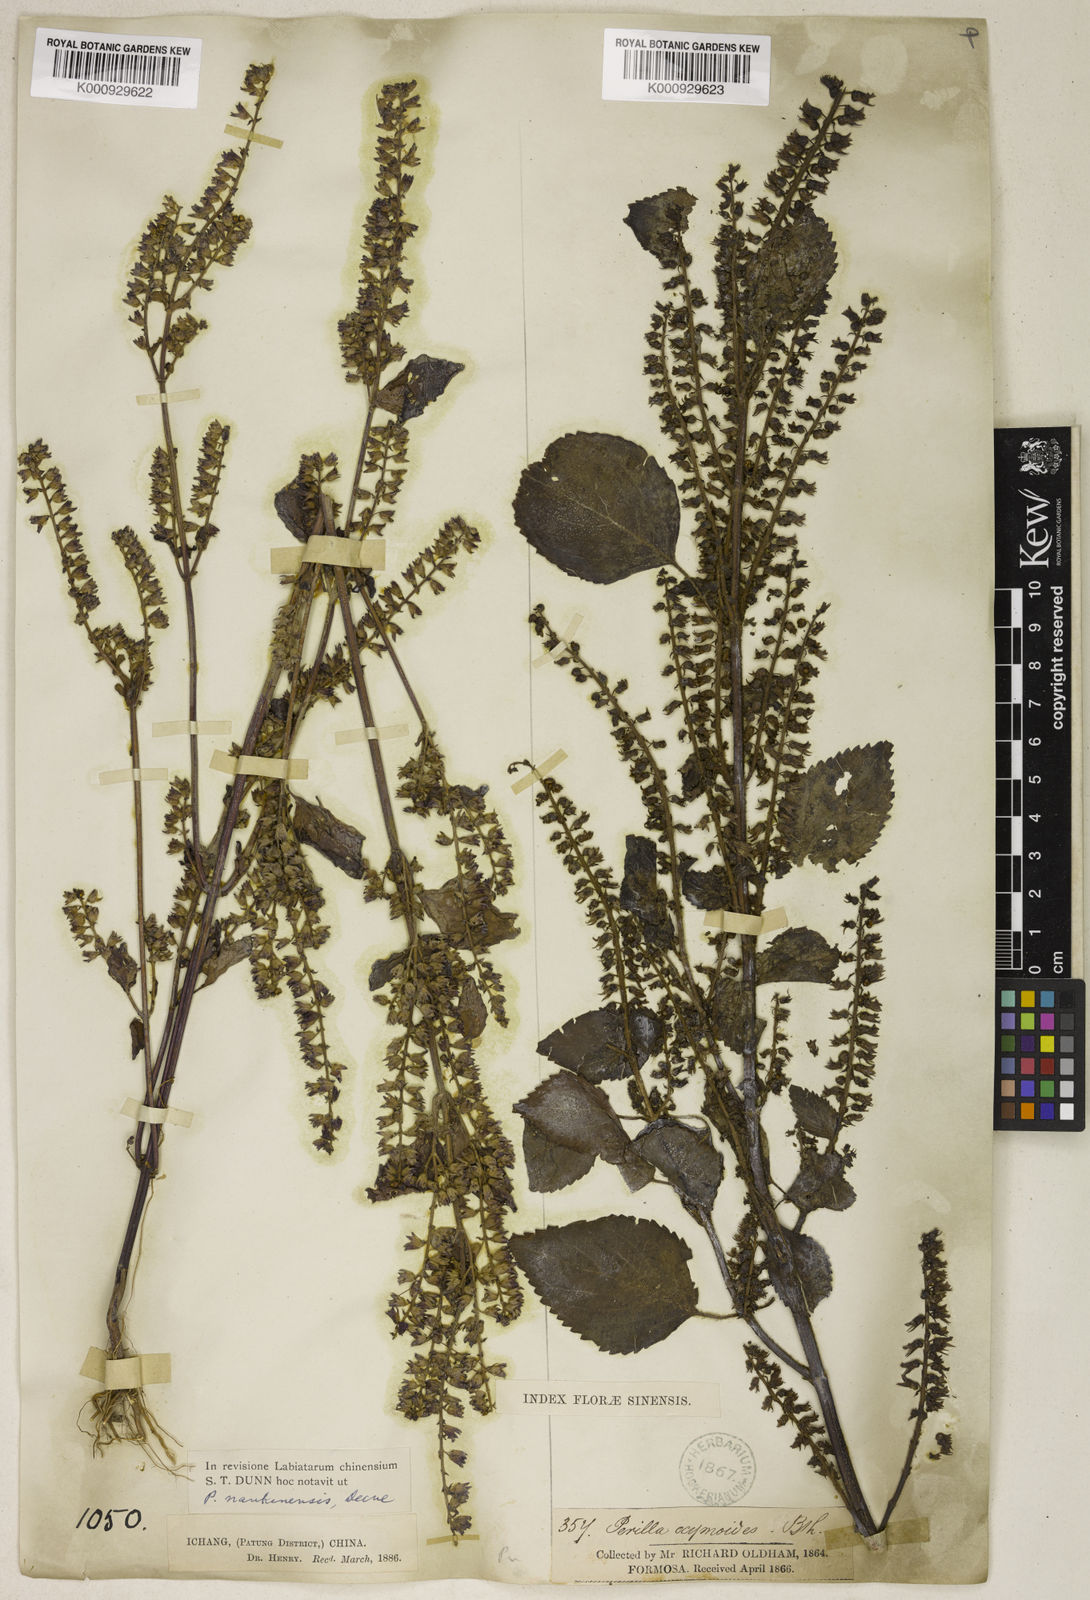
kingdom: Plantae
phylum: Tracheophyta
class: Magnoliopsida
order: Lamiales
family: Lamiaceae
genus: Perilla
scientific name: Perilla frutescens
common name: Perilla
